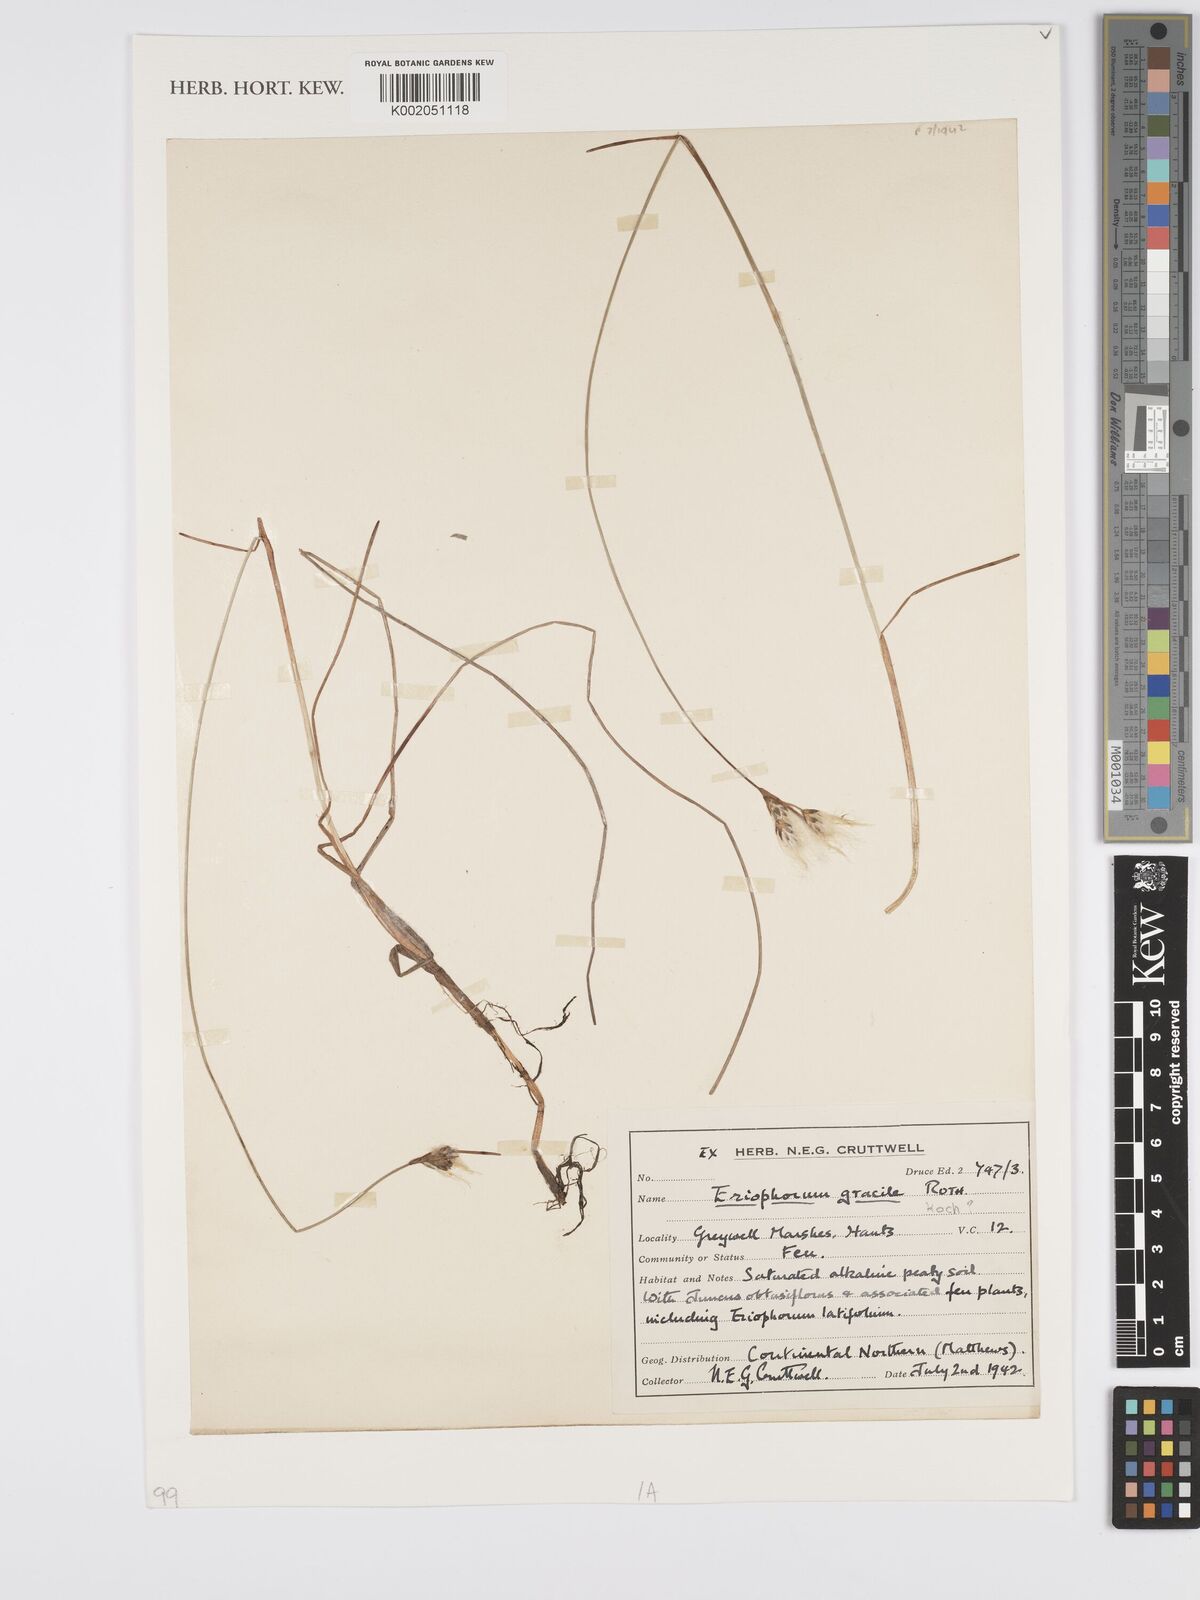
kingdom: Plantae
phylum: Tracheophyta
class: Liliopsida
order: Poales
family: Cyperaceae
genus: Eriophorum
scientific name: Eriophorum gracile
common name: Slender cottongrass
